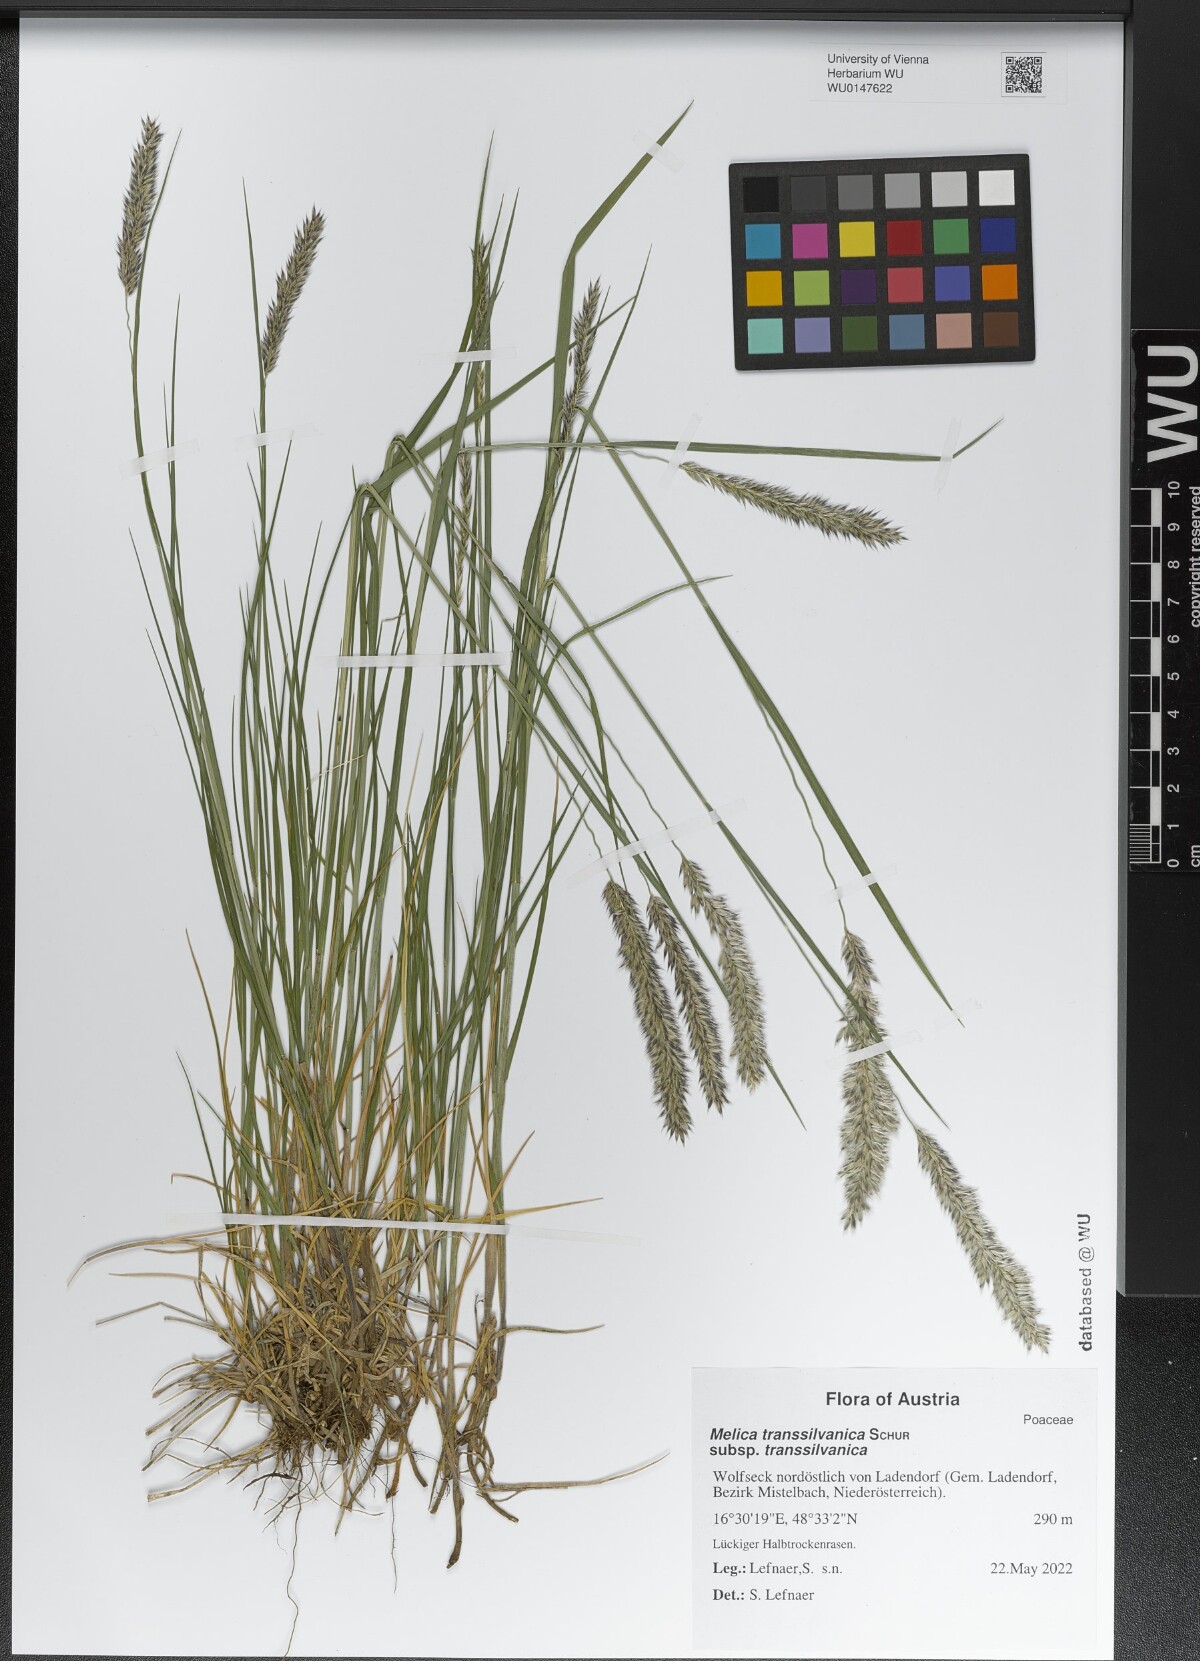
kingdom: Plantae
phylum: Tracheophyta
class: Liliopsida
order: Poales
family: Poaceae
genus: Melica
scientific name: Melica transsilvanica
